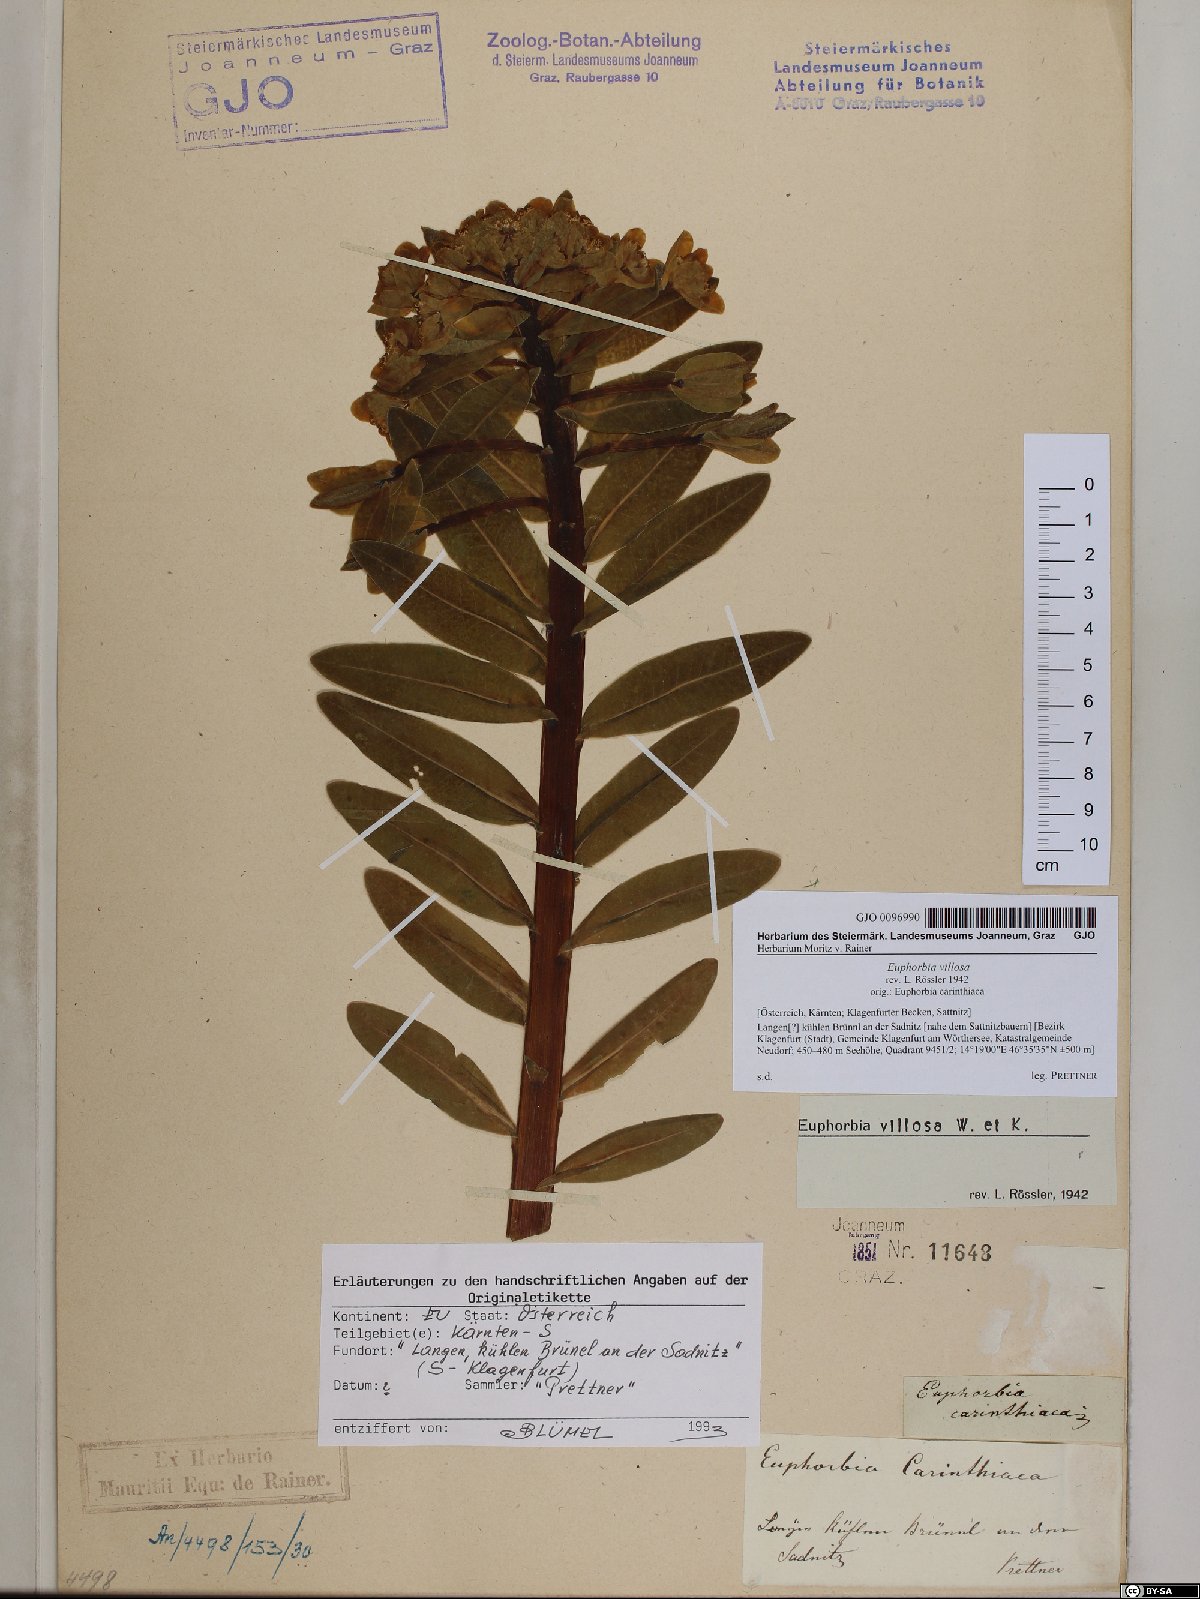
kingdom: Plantae
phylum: Tracheophyta
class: Magnoliopsida
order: Malpighiales
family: Euphorbiaceae
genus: Euphorbia
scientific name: Euphorbia illirica
